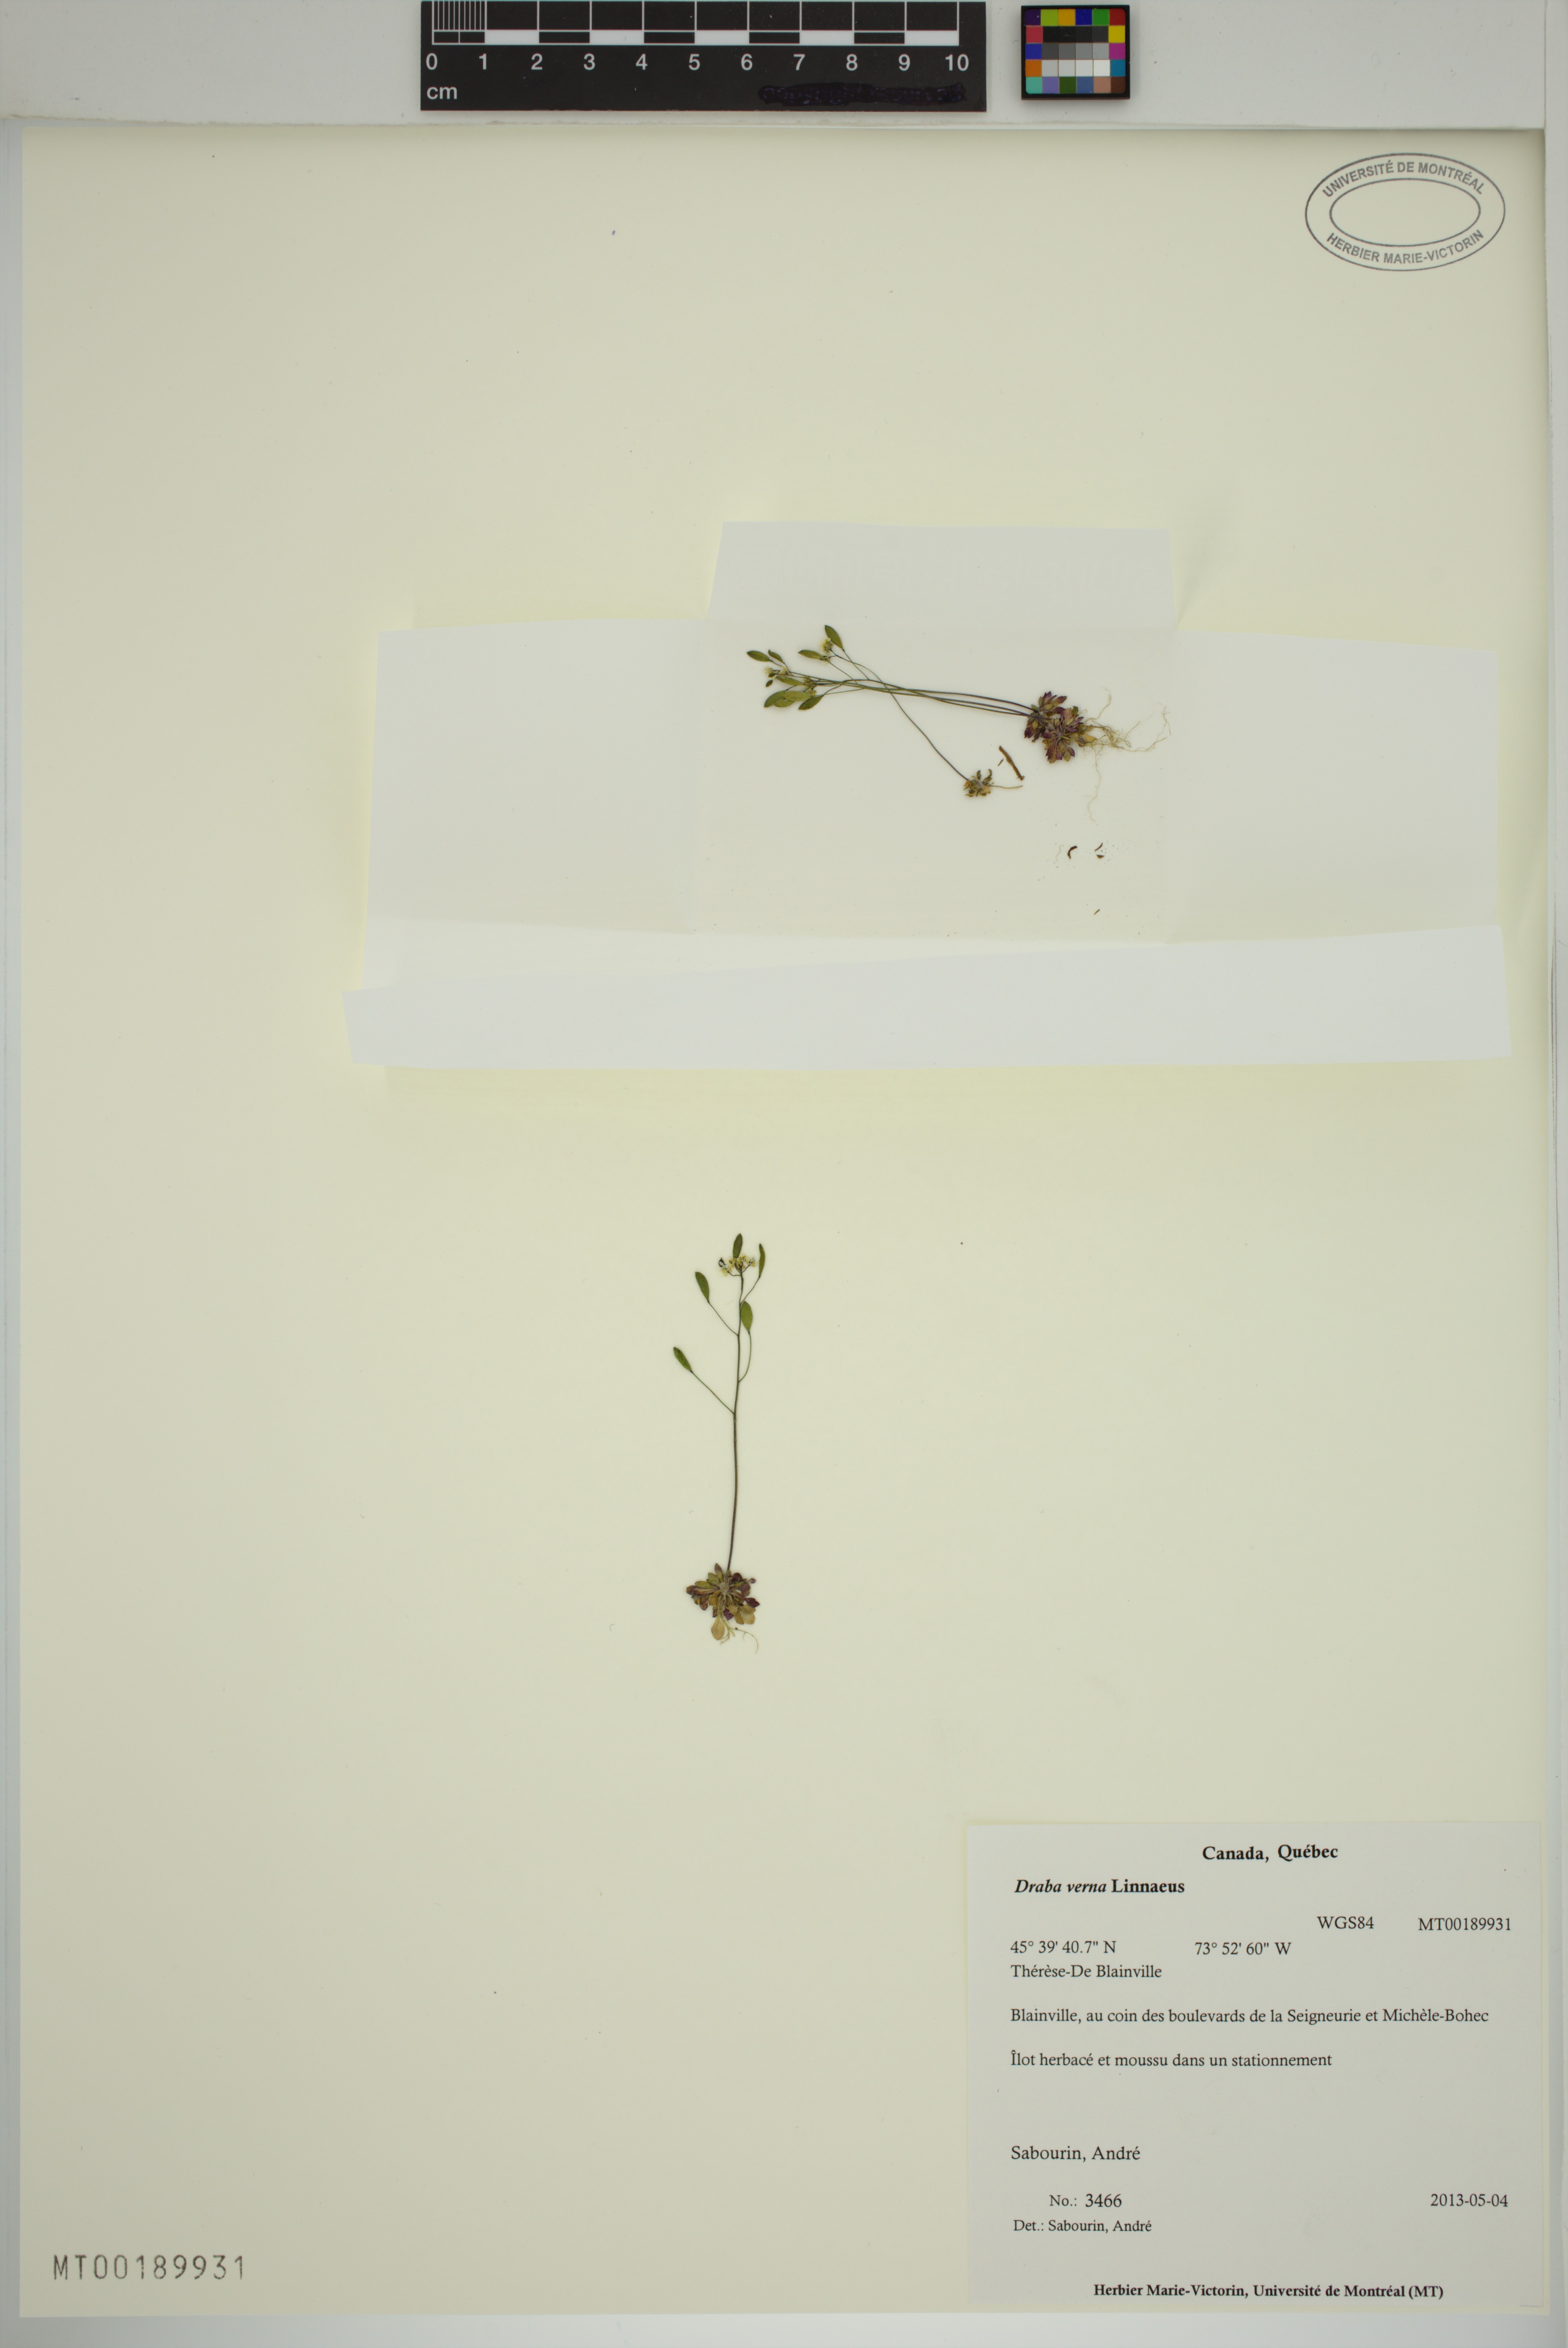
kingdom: Plantae
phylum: Tracheophyta
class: Magnoliopsida
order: Brassicales
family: Brassicaceae
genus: Draba
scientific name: Draba verna
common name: Spring draba
